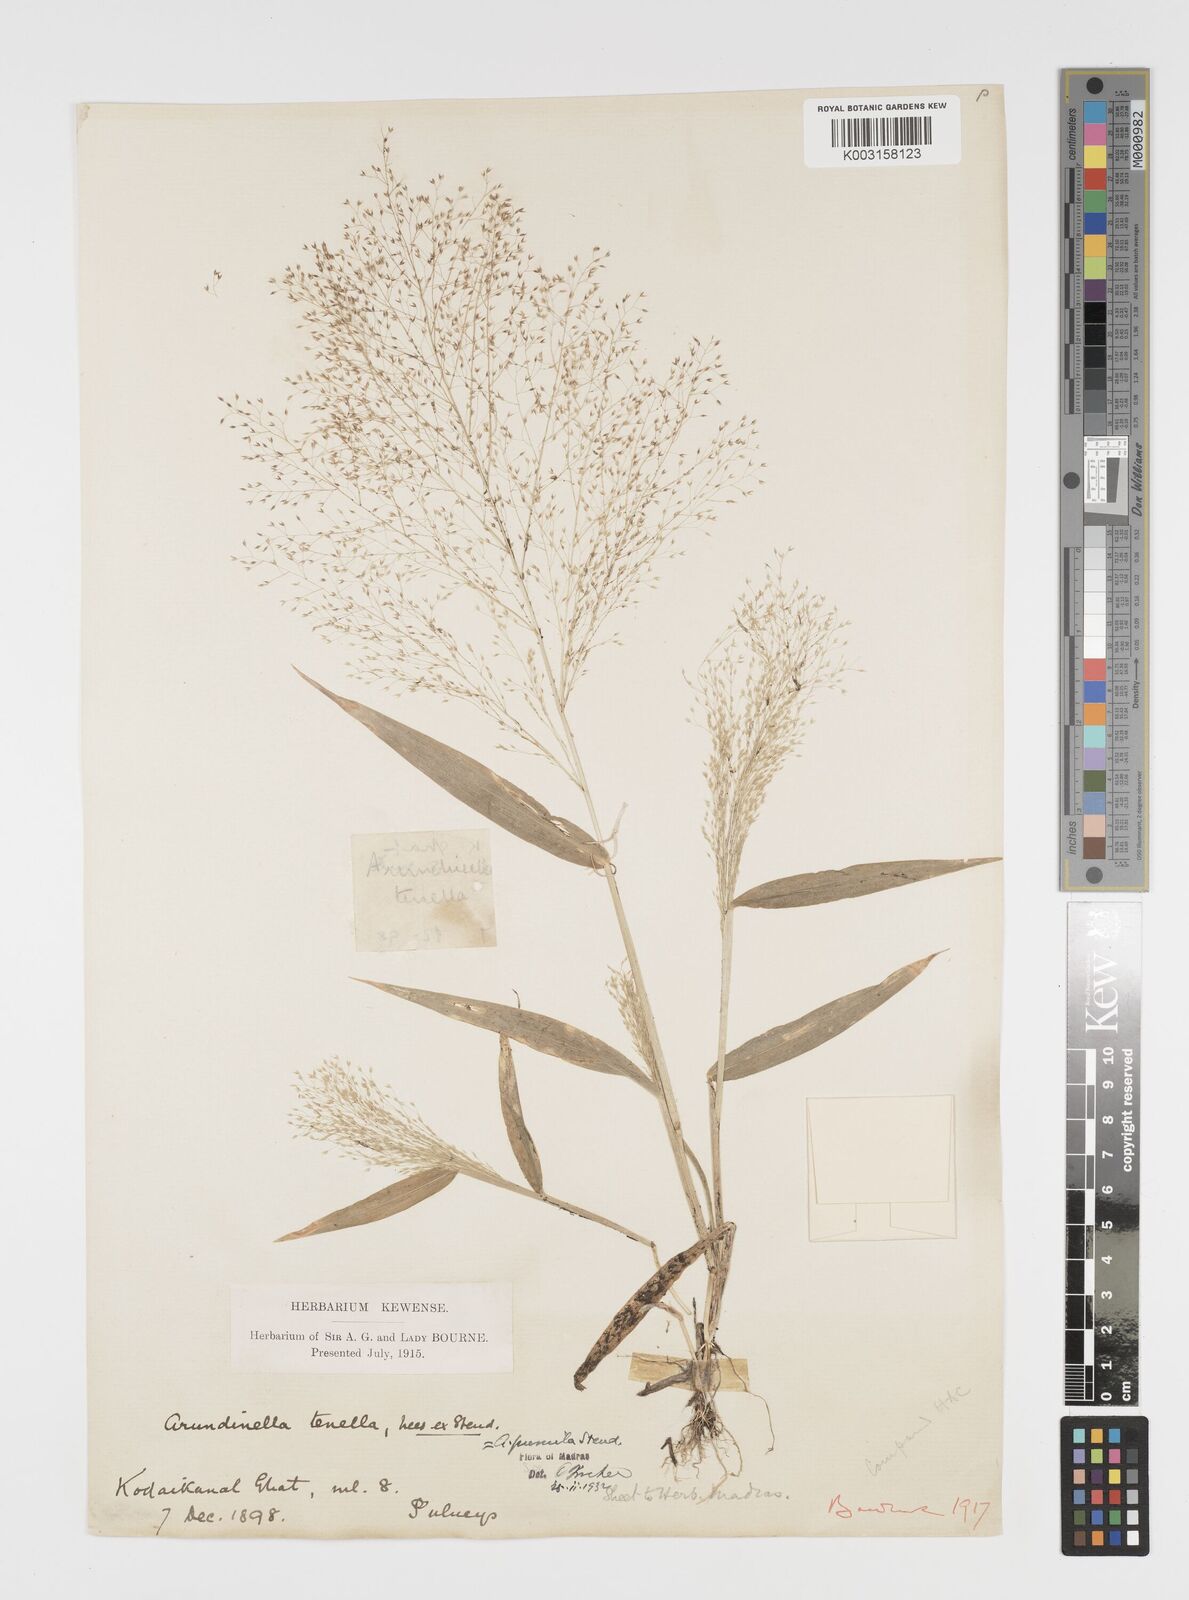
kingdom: Plantae
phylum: Tracheophyta
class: Liliopsida
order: Poales
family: Poaceae
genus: Arundinella
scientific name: Arundinella pumila
